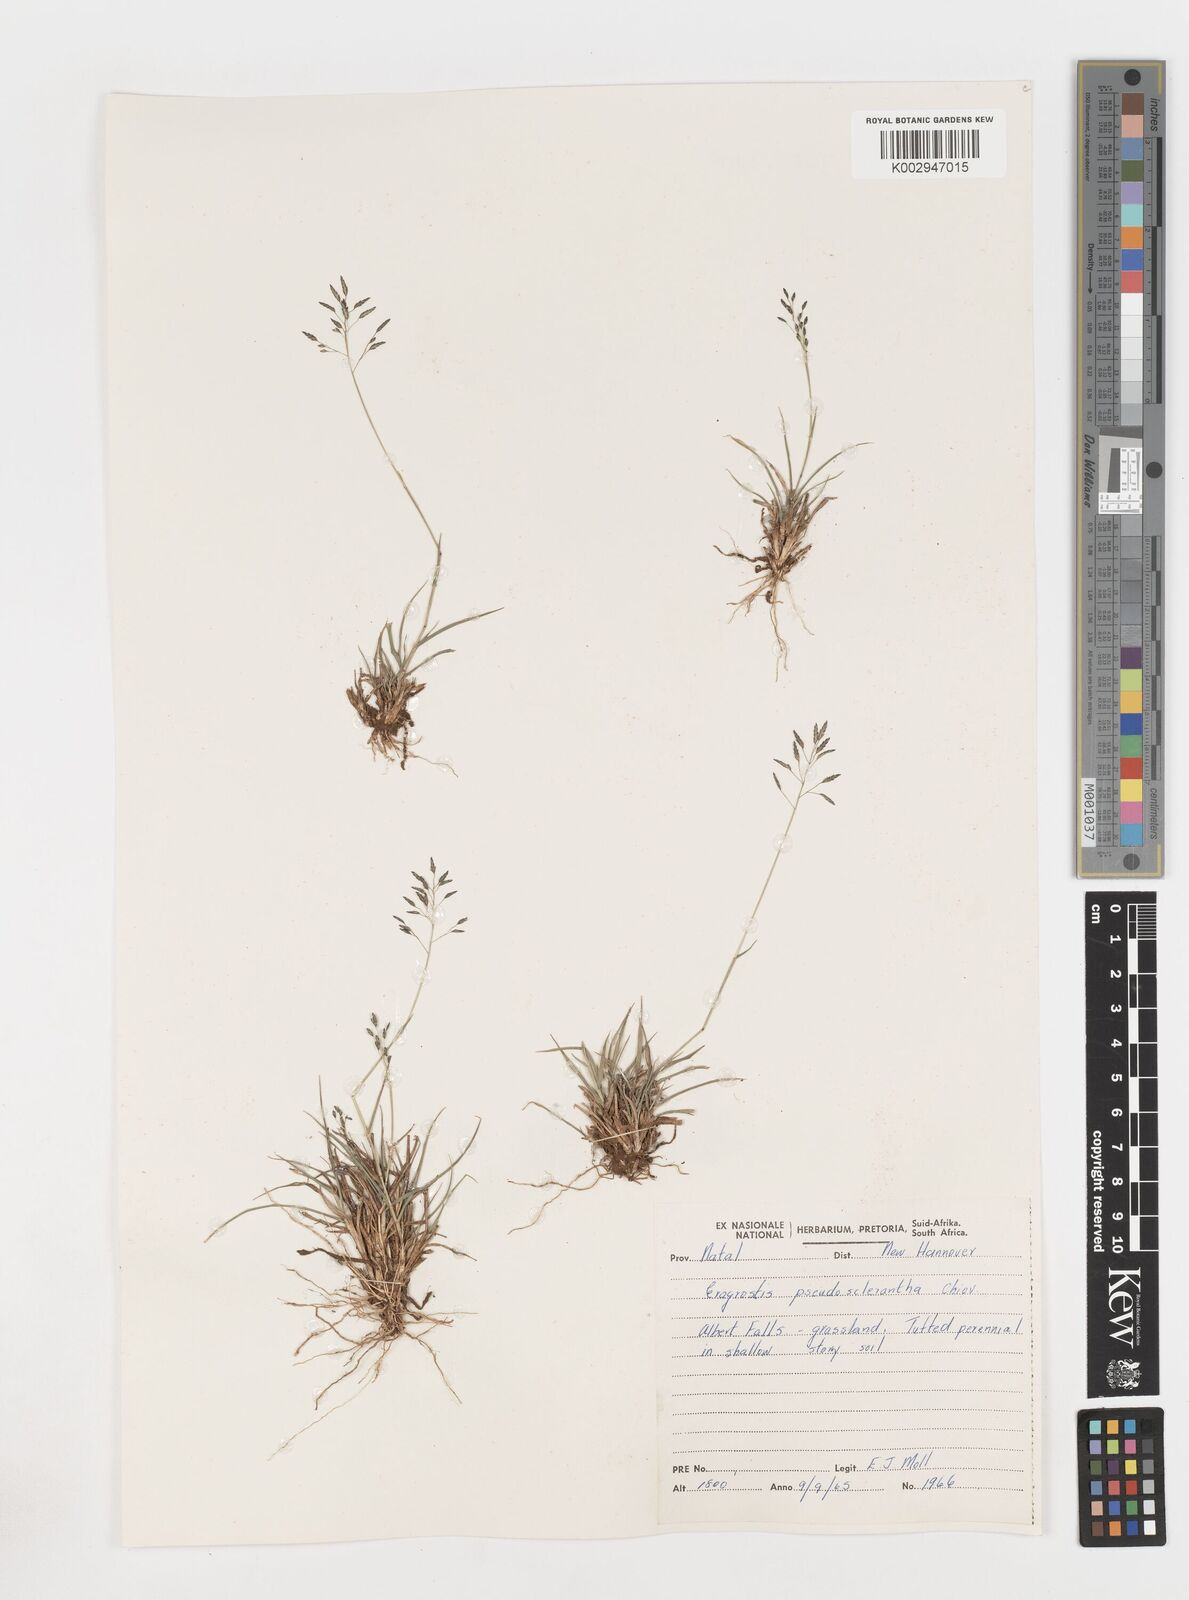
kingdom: Plantae
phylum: Tracheophyta
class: Liliopsida
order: Poales
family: Poaceae
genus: Eragrostis
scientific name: Eragrostis patentipilosa
